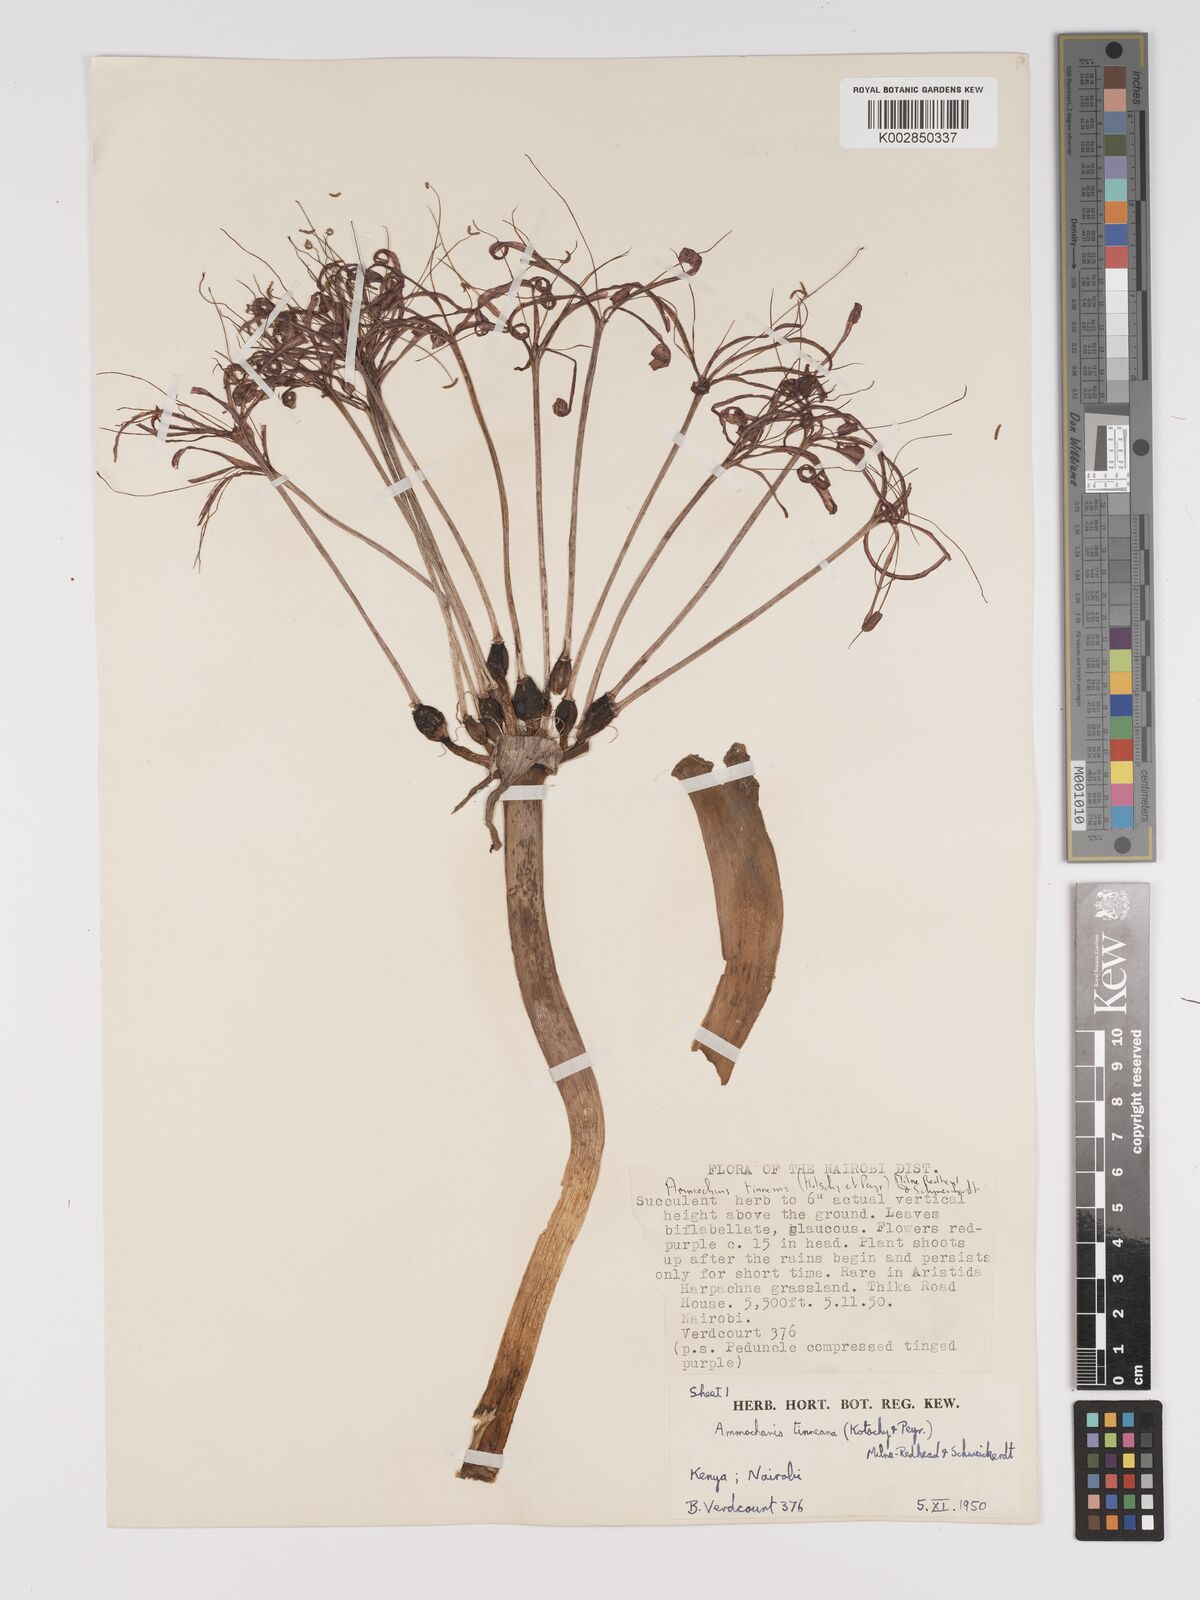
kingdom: Plantae
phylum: Tracheophyta
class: Liliopsida
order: Asparagales
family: Amaryllidaceae
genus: Ammocharis
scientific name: Ammocharis tinneana
